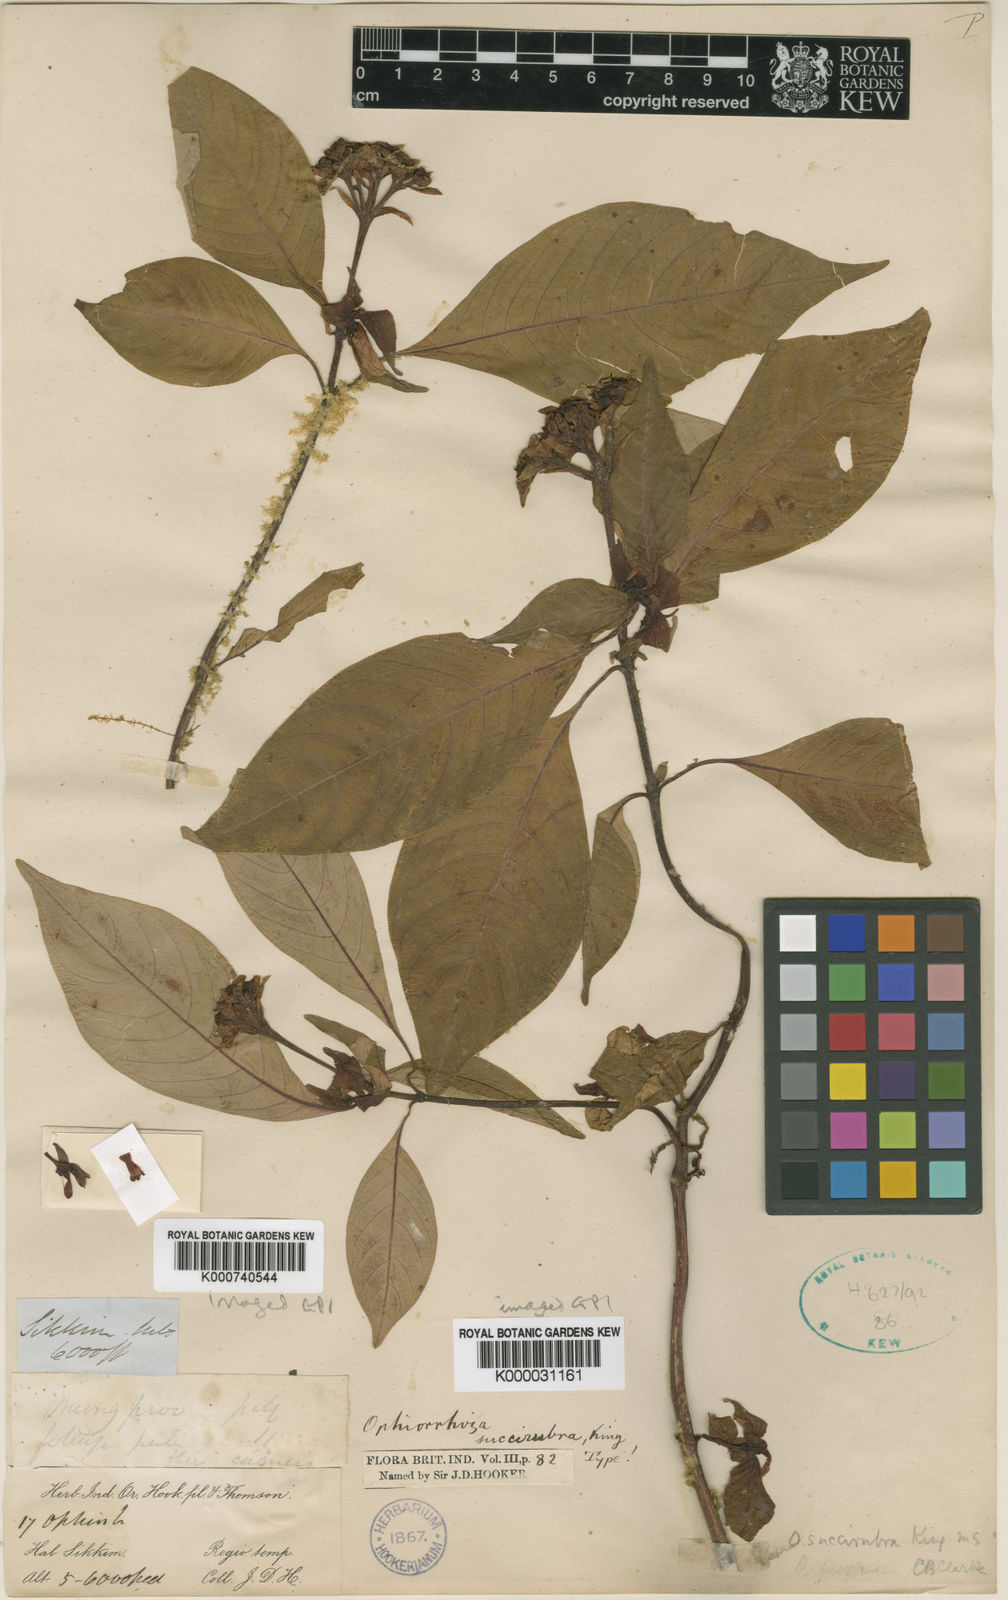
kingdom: Plantae
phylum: Tracheophyta
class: Magnoliopsida
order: Gentianales
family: Rubiaceae
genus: Ophiorrhiza
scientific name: Ophiorrhiza succirubra
